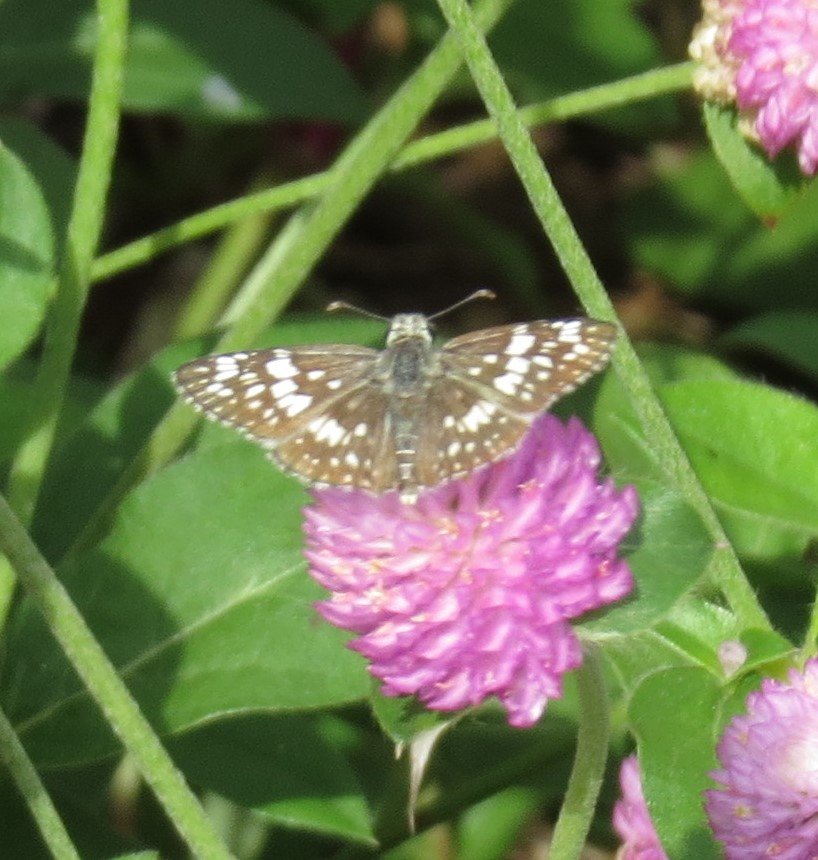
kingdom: Animalia
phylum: Arthropoda
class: Insecta
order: Lepidoptera
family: Hesperiidae
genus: Pyrgus
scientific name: Pyrgus communis
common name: White Checkered-Skipper
